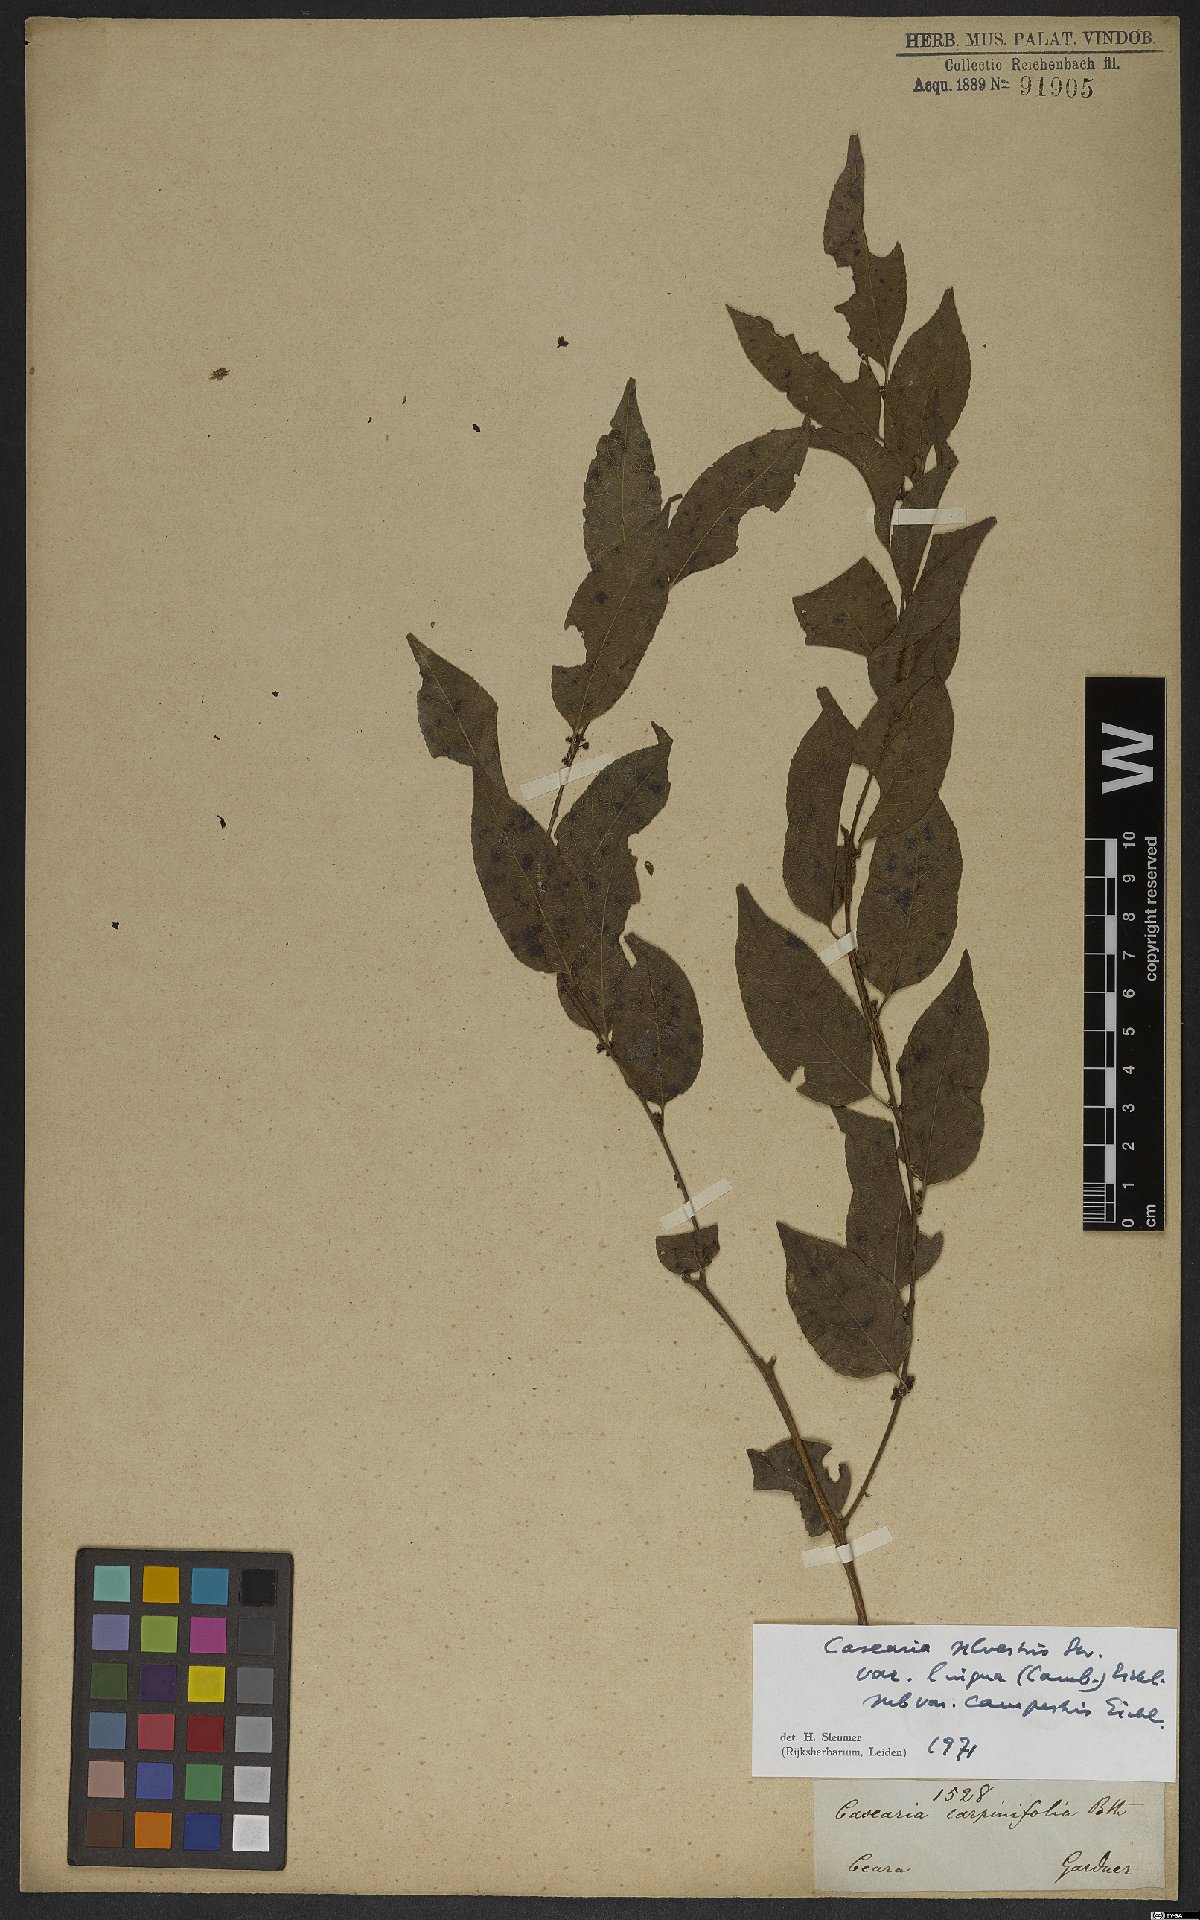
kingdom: Plantae
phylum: Tracheophyta
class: Magnoliopsida
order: Malpighiales
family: Salicaceae
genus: Casearia
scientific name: Casearia sylvestris
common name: Wild sage
